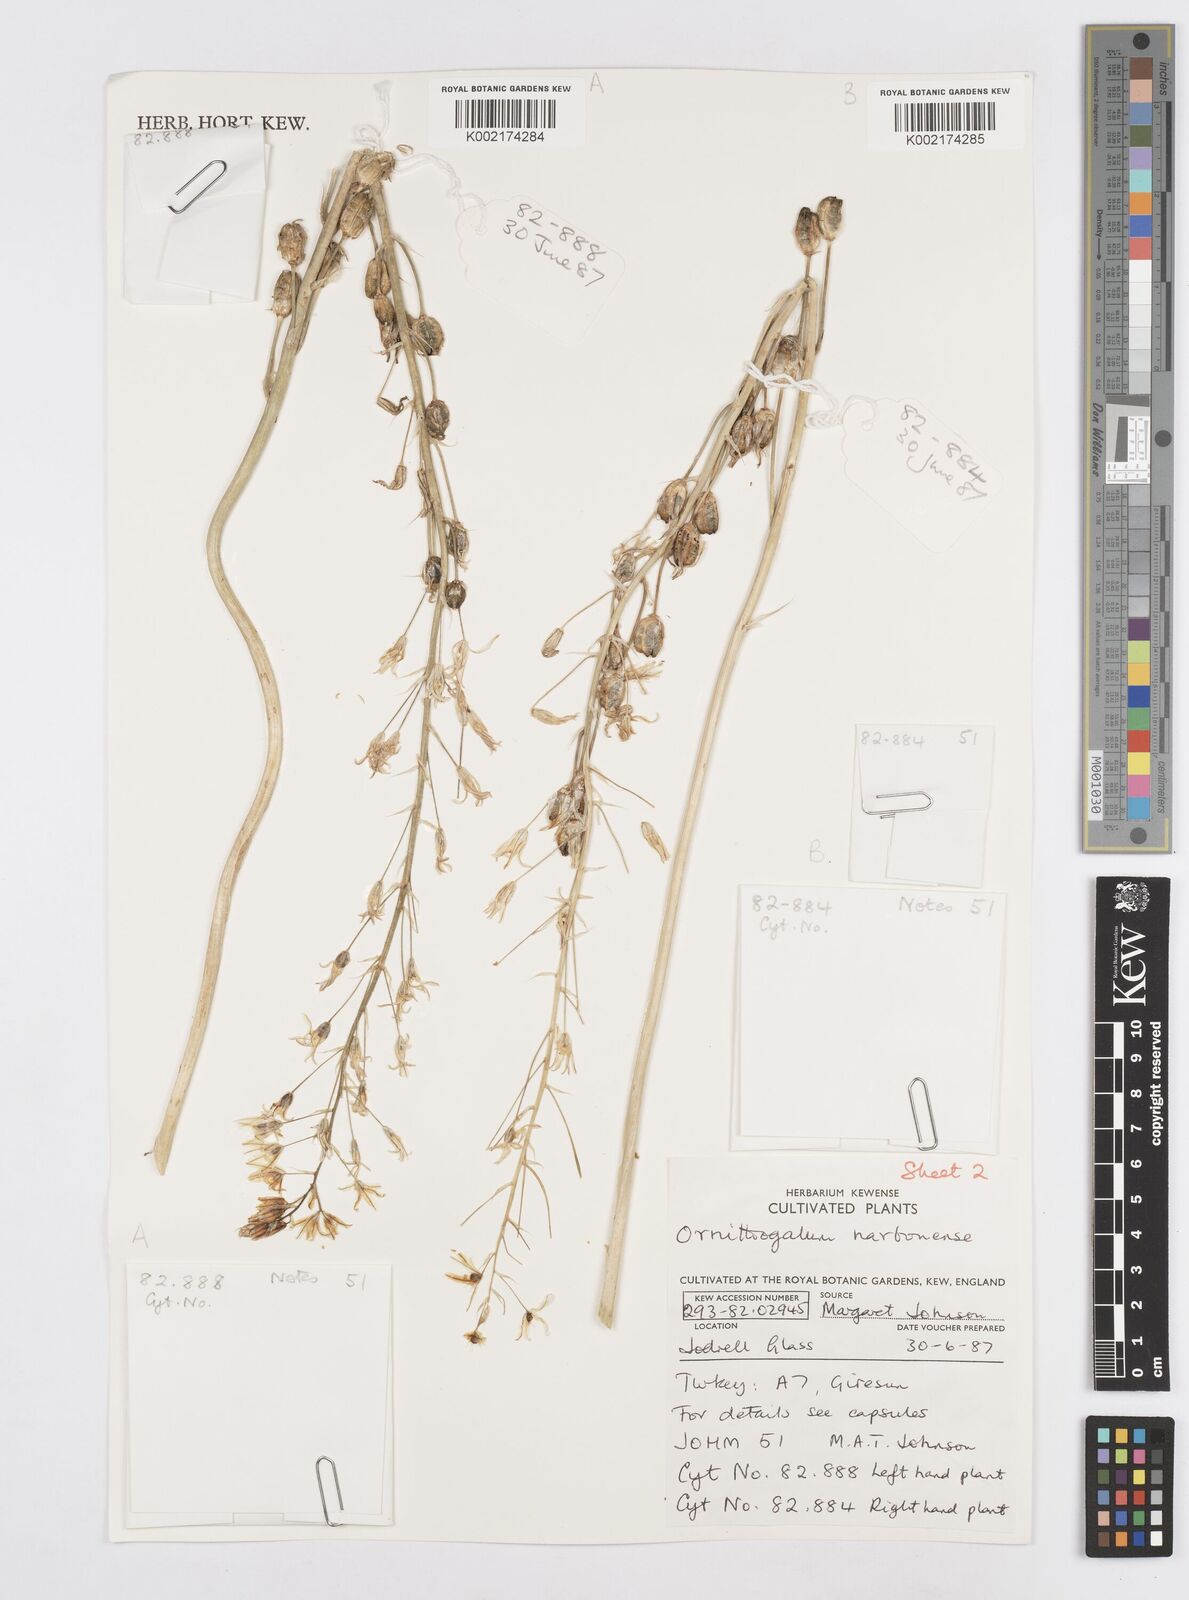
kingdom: Plantae
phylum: Tracheophyta
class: Liliopsida
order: Asparagales
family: Asparagaceae
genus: Ornithogalum
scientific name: Ornithogalum narbonense
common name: Bath-asparagus
